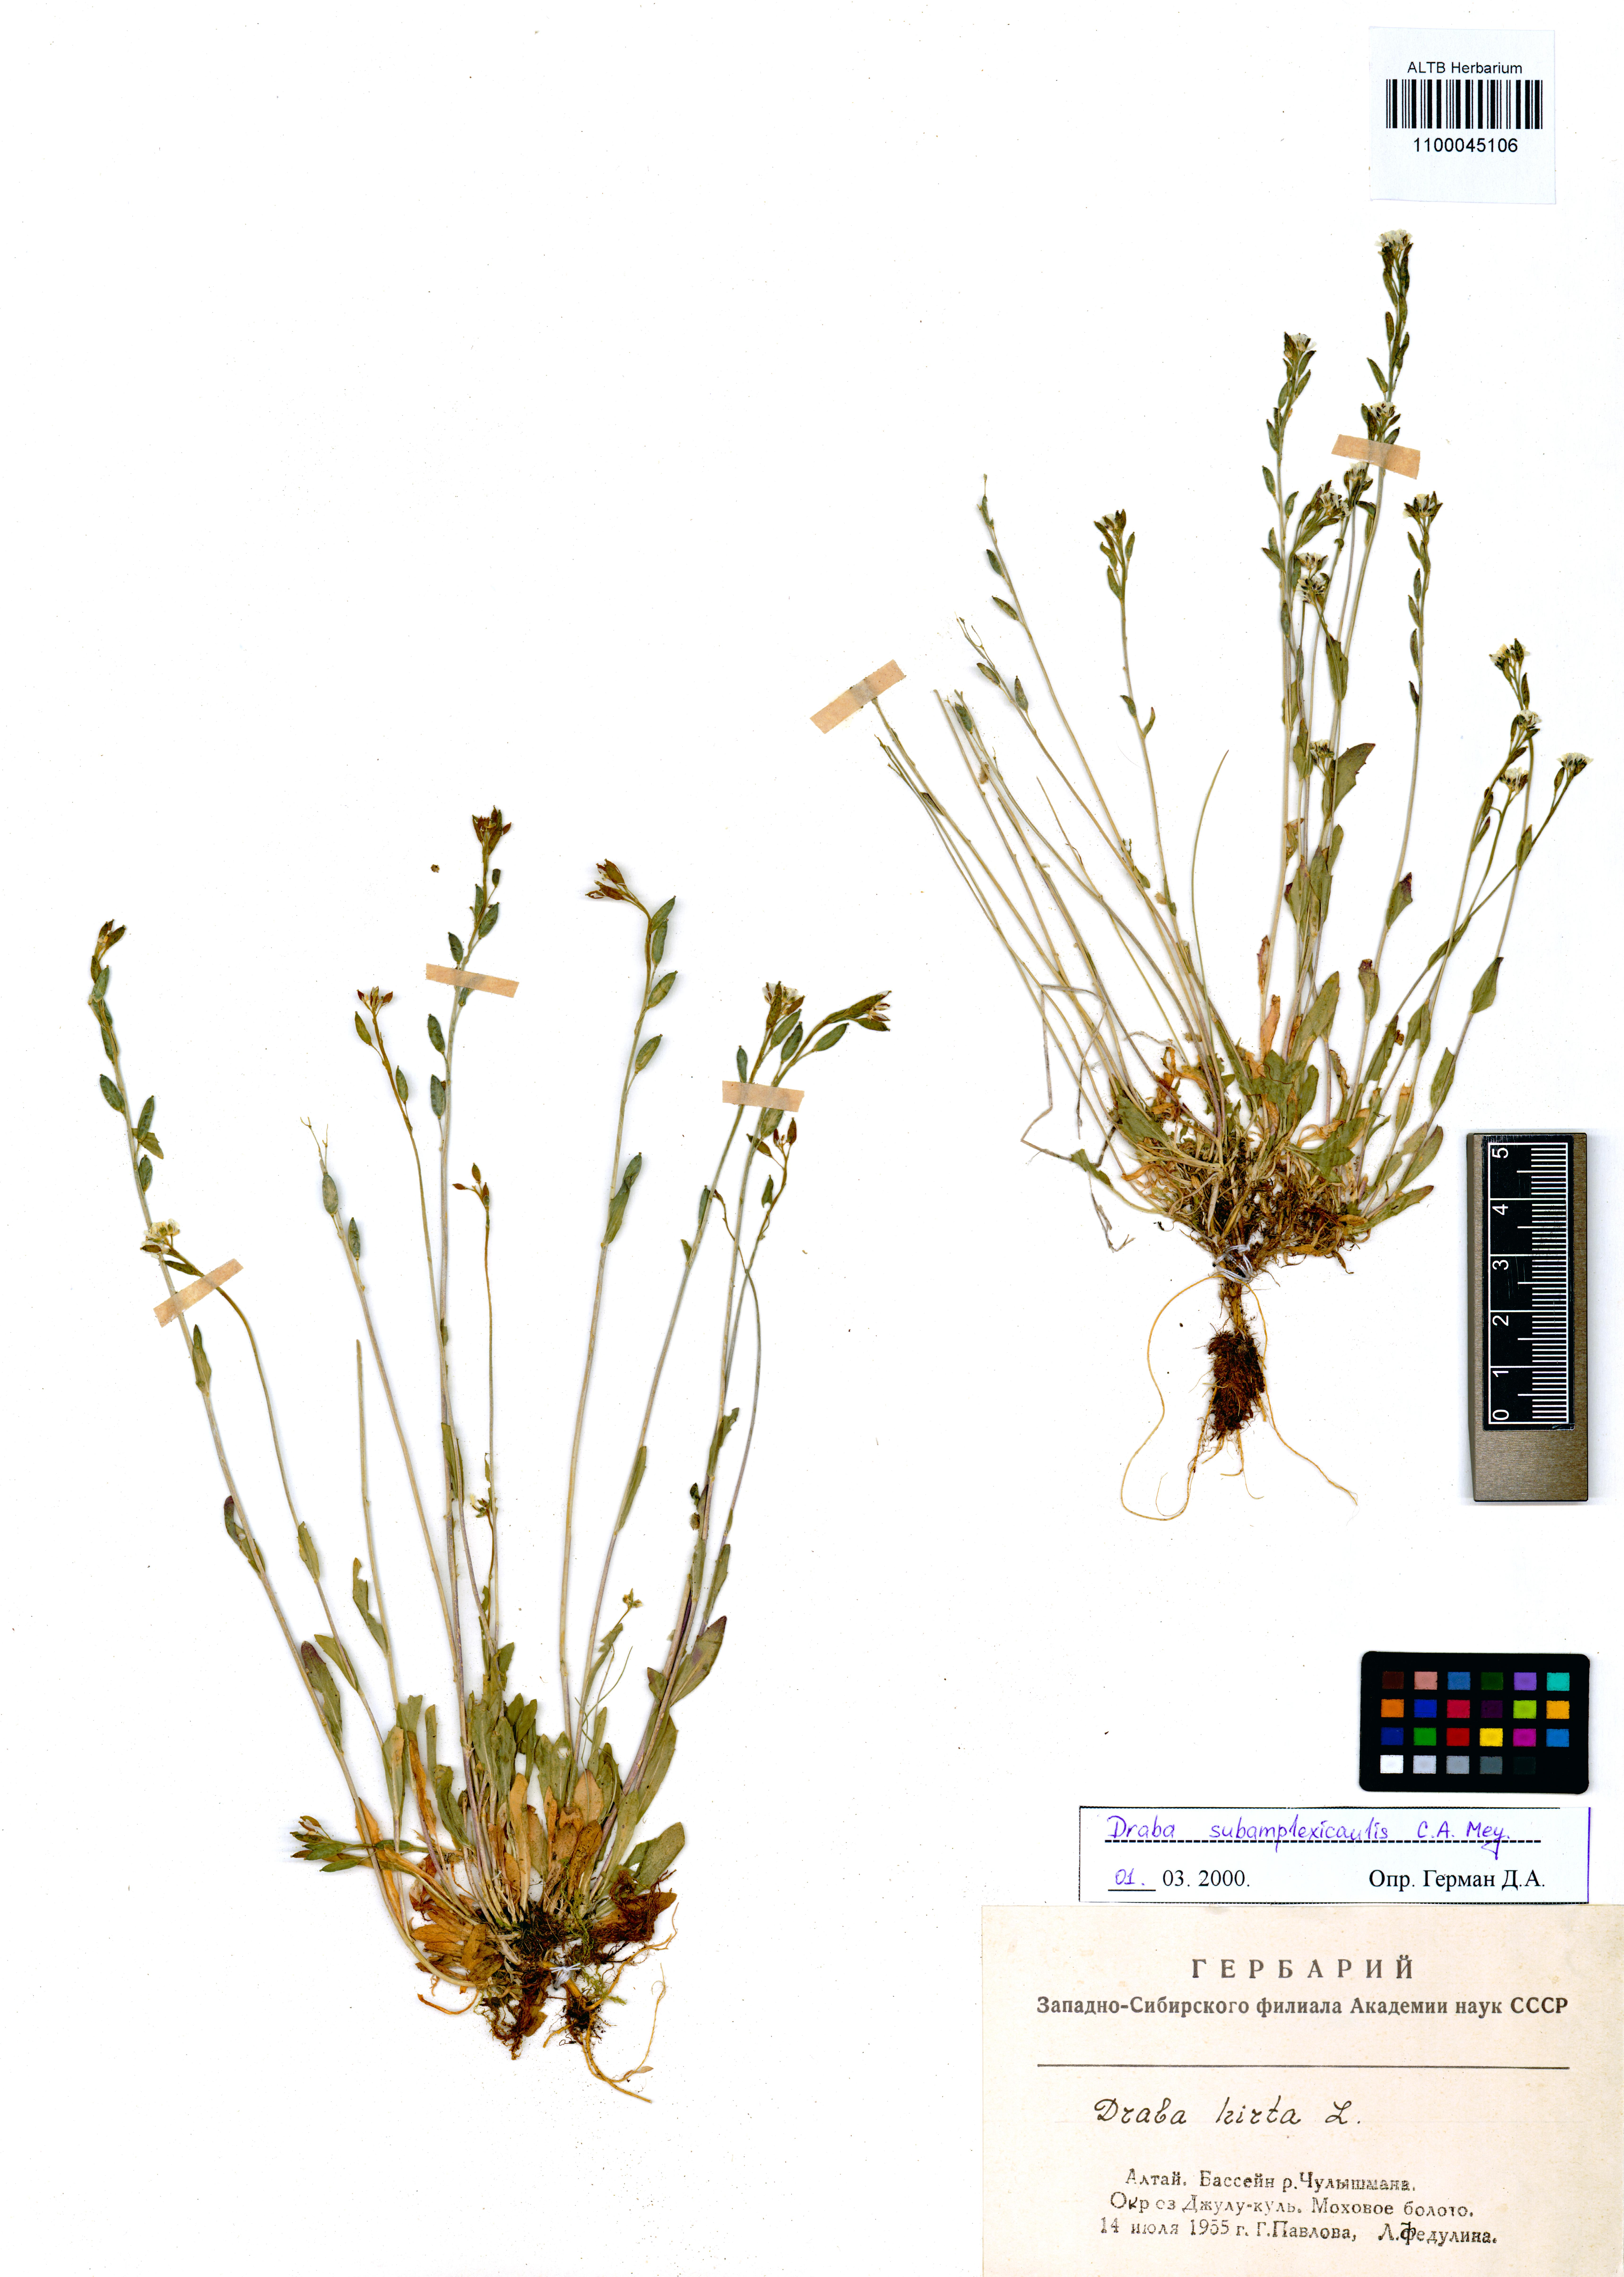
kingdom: Plantae
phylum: Tracheophyta
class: Magnoliopsida
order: Brassicales
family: Brassicaceae
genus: Draba
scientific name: Draba subamplexicaulis
